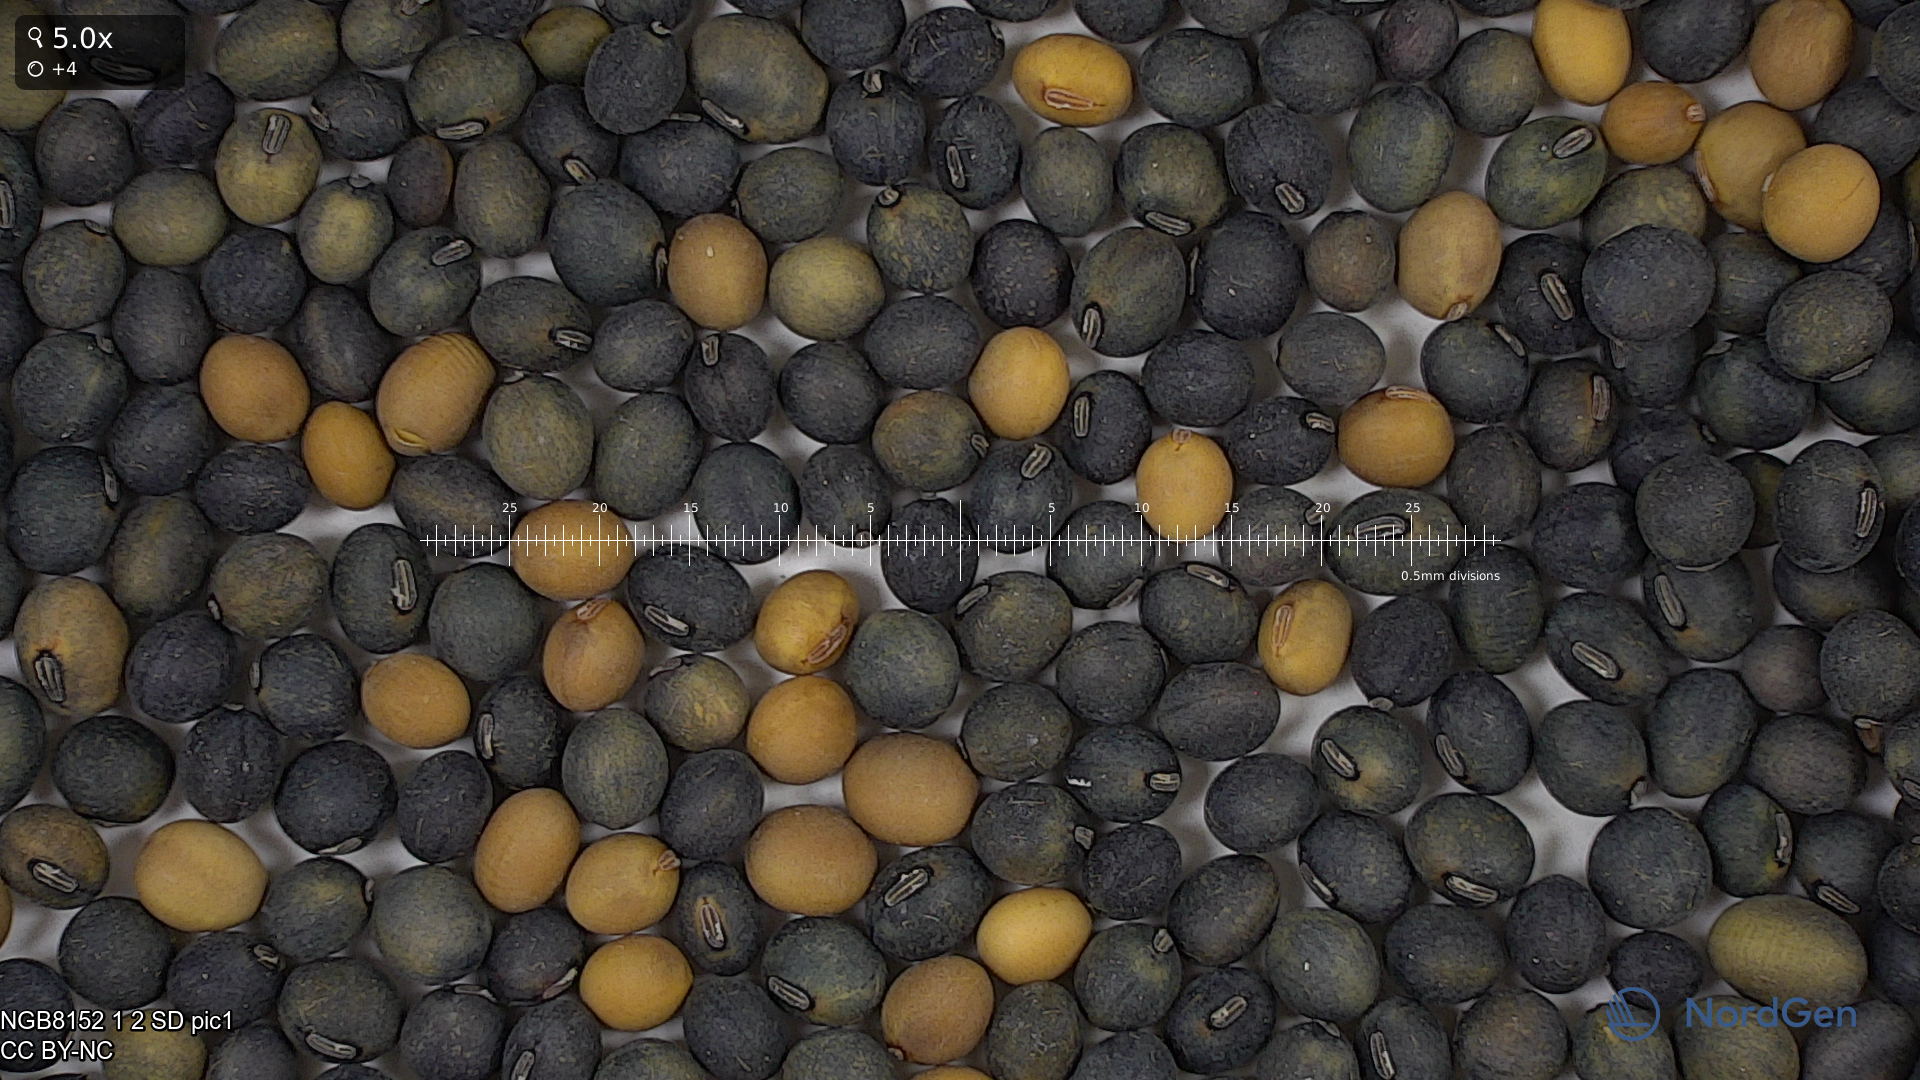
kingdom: Plantae
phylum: Tracheophyta
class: Magnoliopsida
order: Fabales
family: Fabaceae
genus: Glycine
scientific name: Glycine max
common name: Soya-bean
